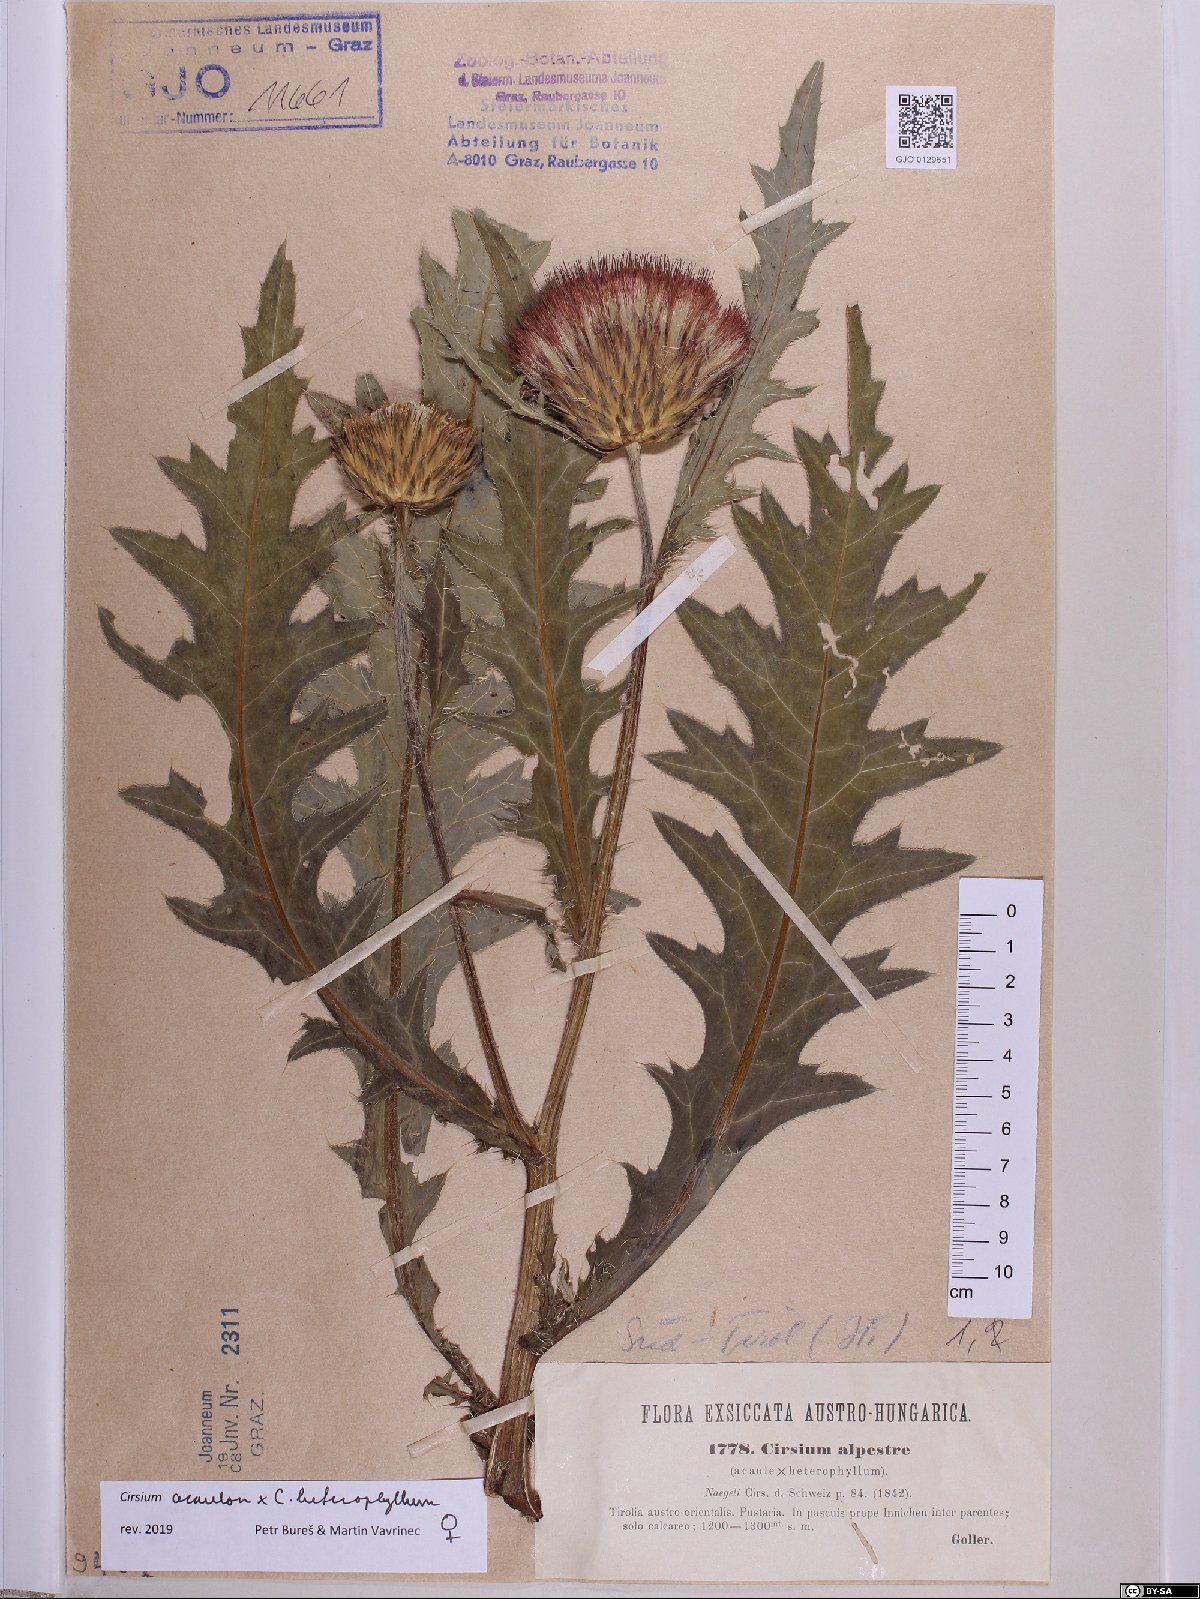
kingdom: Plantae
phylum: Tracheophyta
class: Magnoliopsida
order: Asterales
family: Asteraceae
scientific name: Asteraceae
